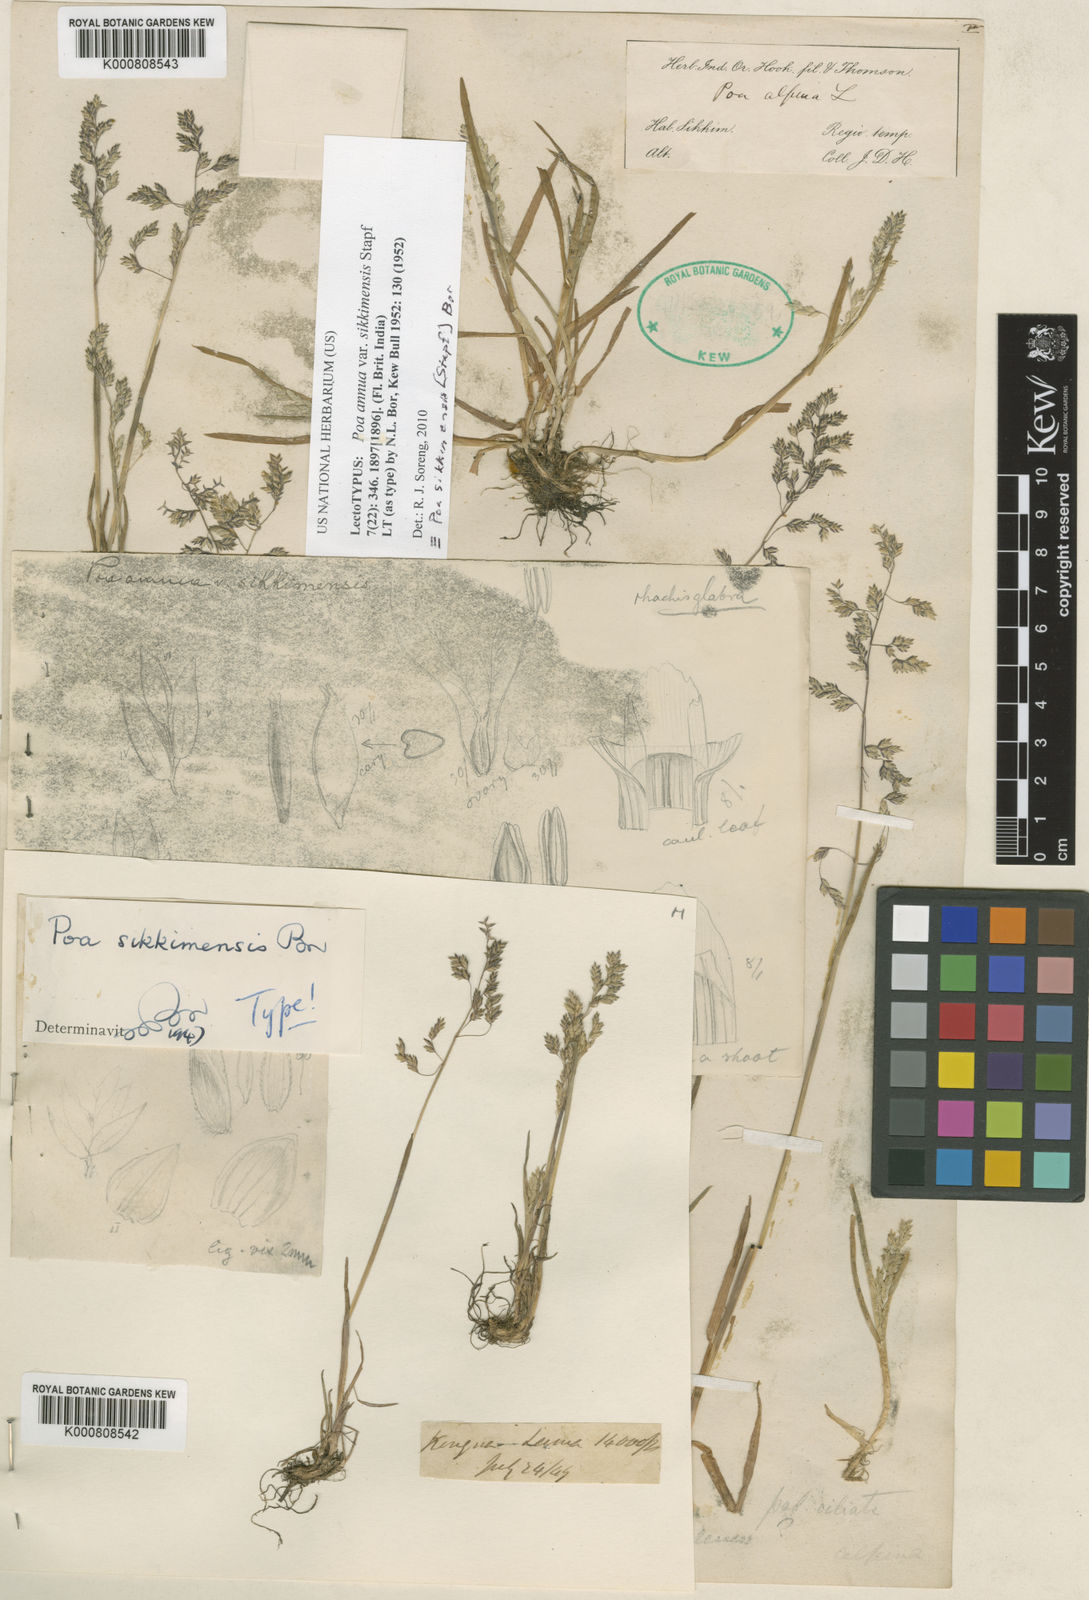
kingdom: Plantae
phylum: Tracheophyta
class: Liliopsida
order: Poales
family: Poaceae
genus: Poa
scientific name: Poa sikkimensis
